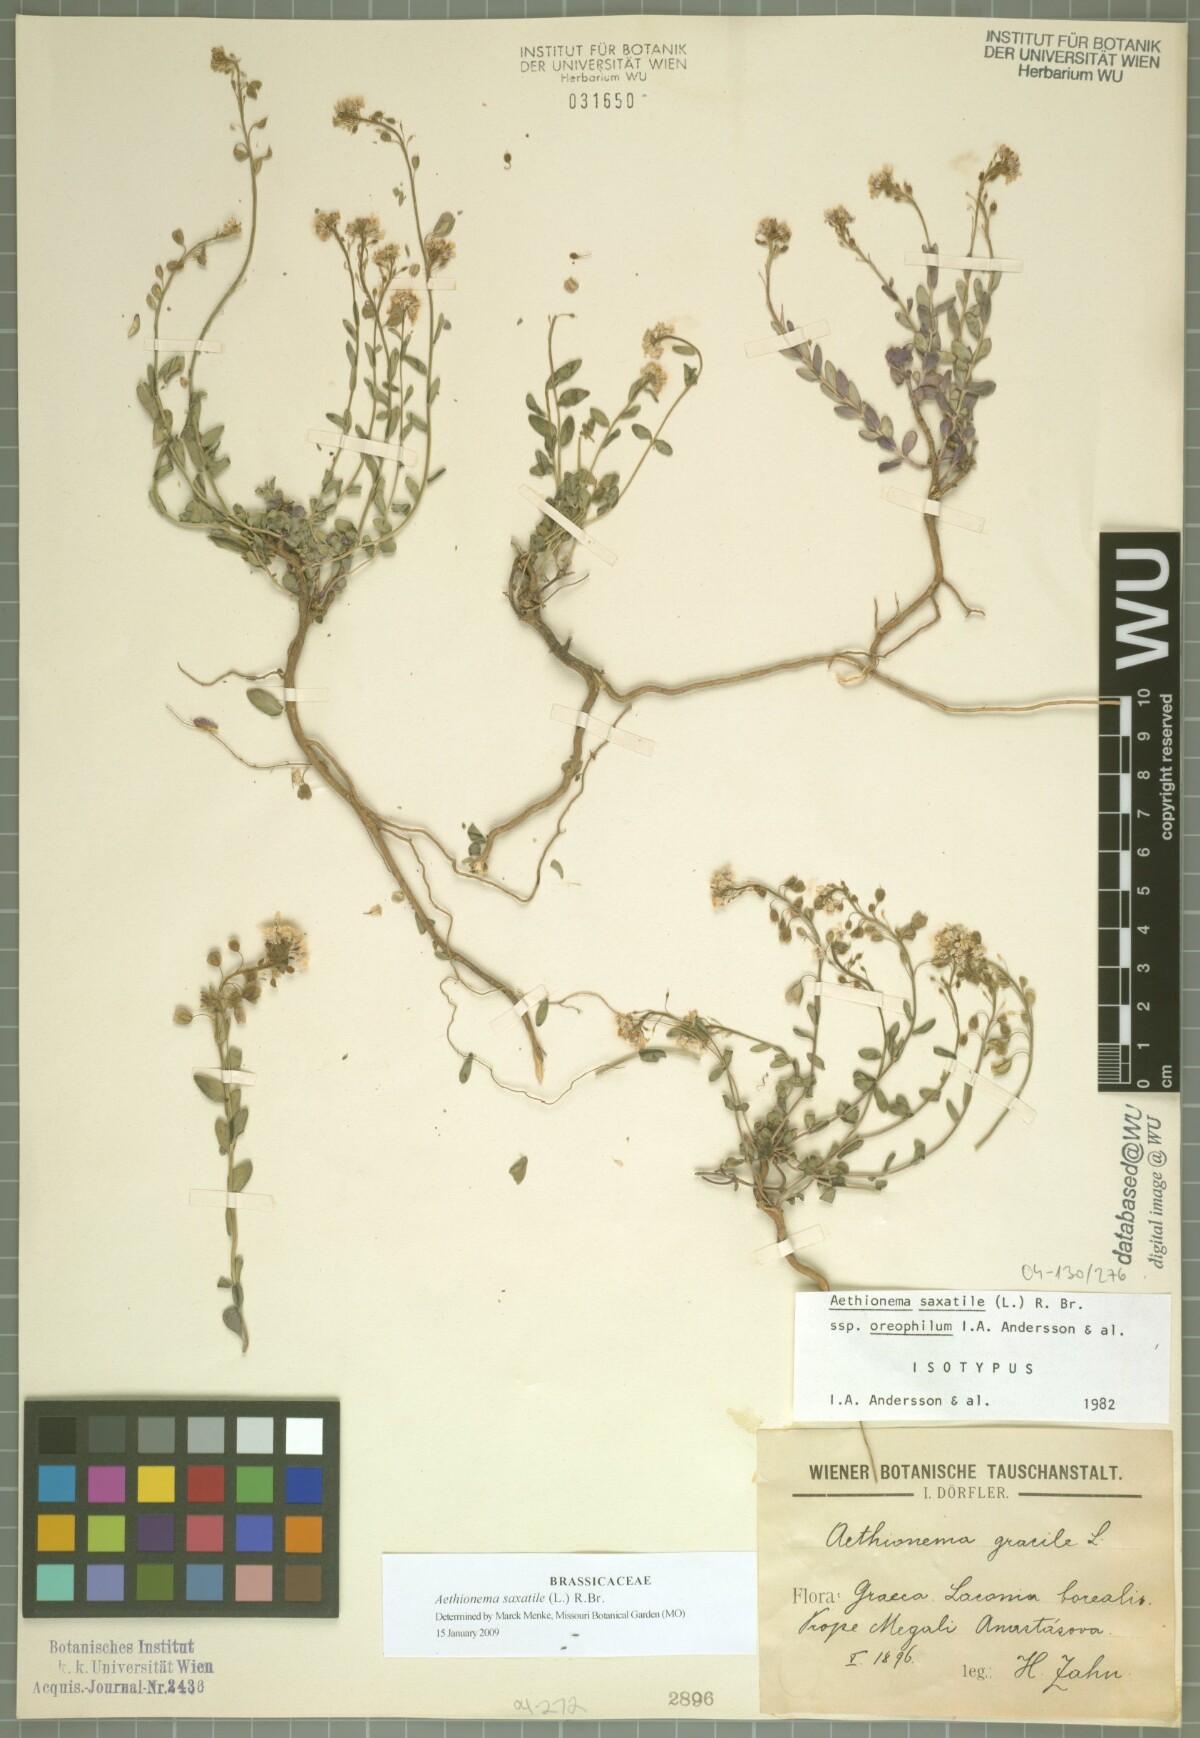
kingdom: Plantae
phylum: Tracheophyta
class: Magnoliopsida
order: Brassicales
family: Brassicaceae
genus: Aethionema
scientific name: Aethionema saxatile
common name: Burnt candytuft
